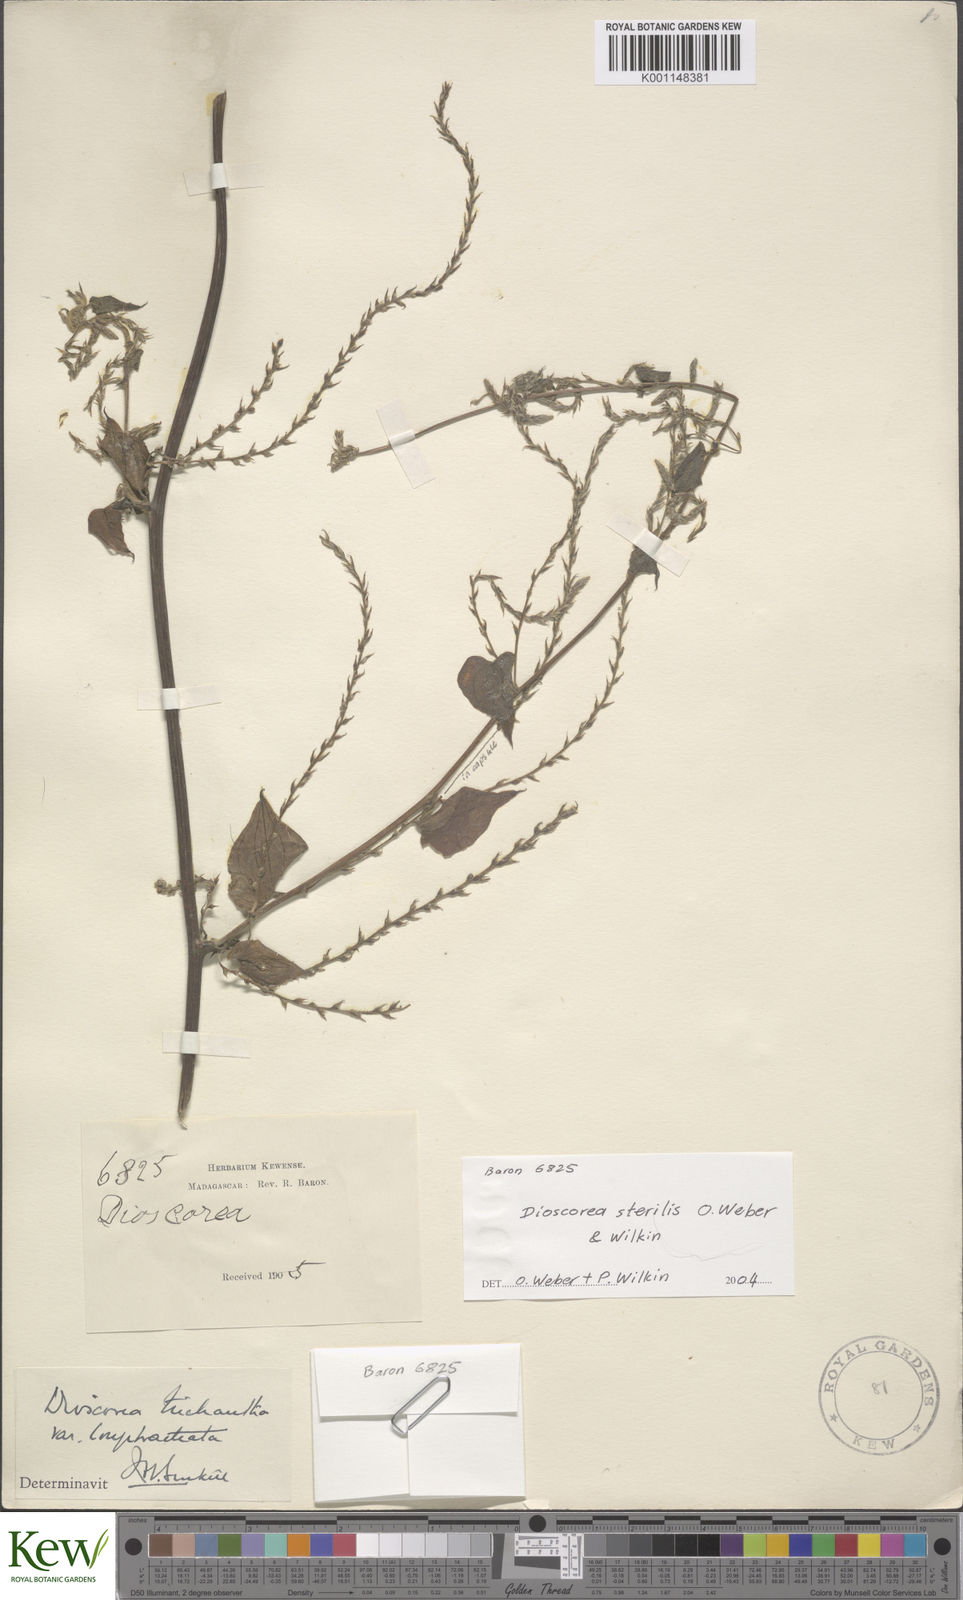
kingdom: Plantae
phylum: Tracheophyta
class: Liliopsida
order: Dioscoreales
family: Dioscoreaceae
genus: Dioscorea
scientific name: Dioscorea sterilis
